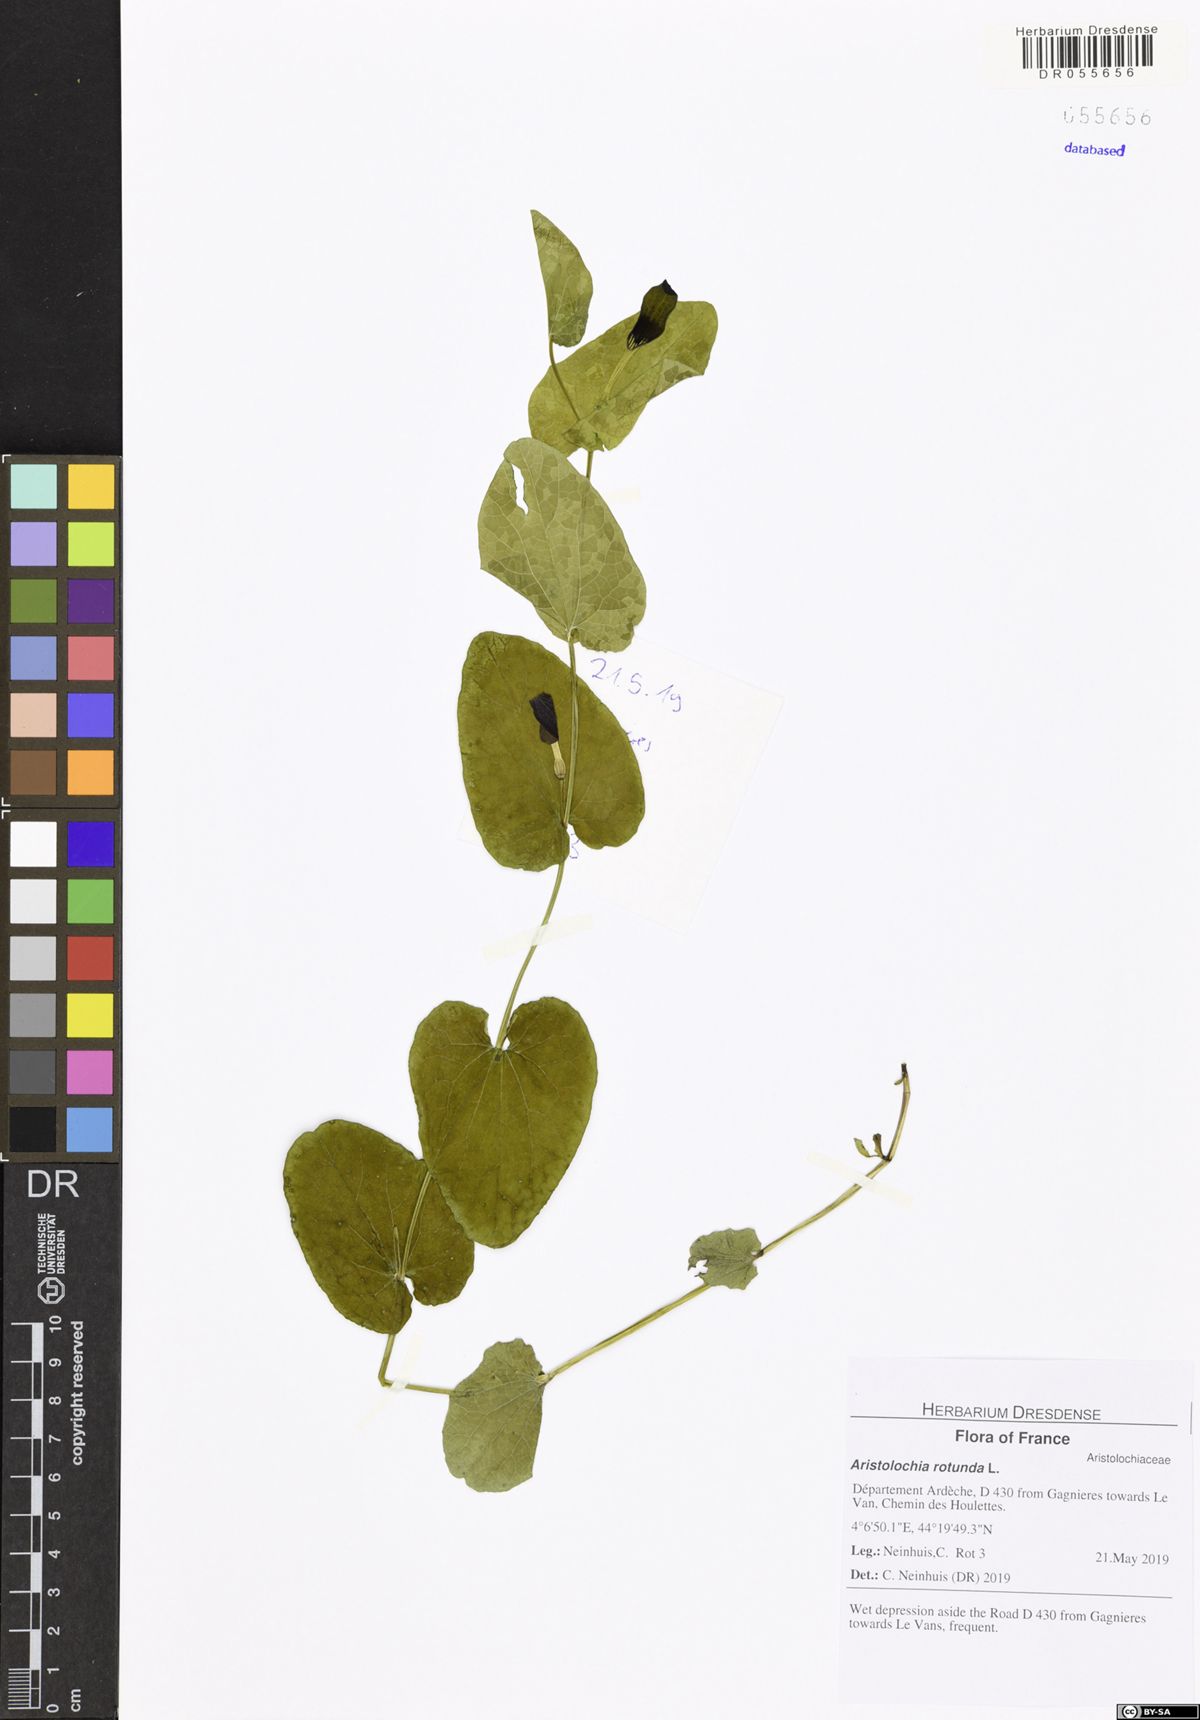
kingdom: Plantae
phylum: Tracheophyta
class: Magnoliopsida
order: Piperales
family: Aristolochiaceae
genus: Aristolochia
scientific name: Aristolochia rotunda
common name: Smearwort
